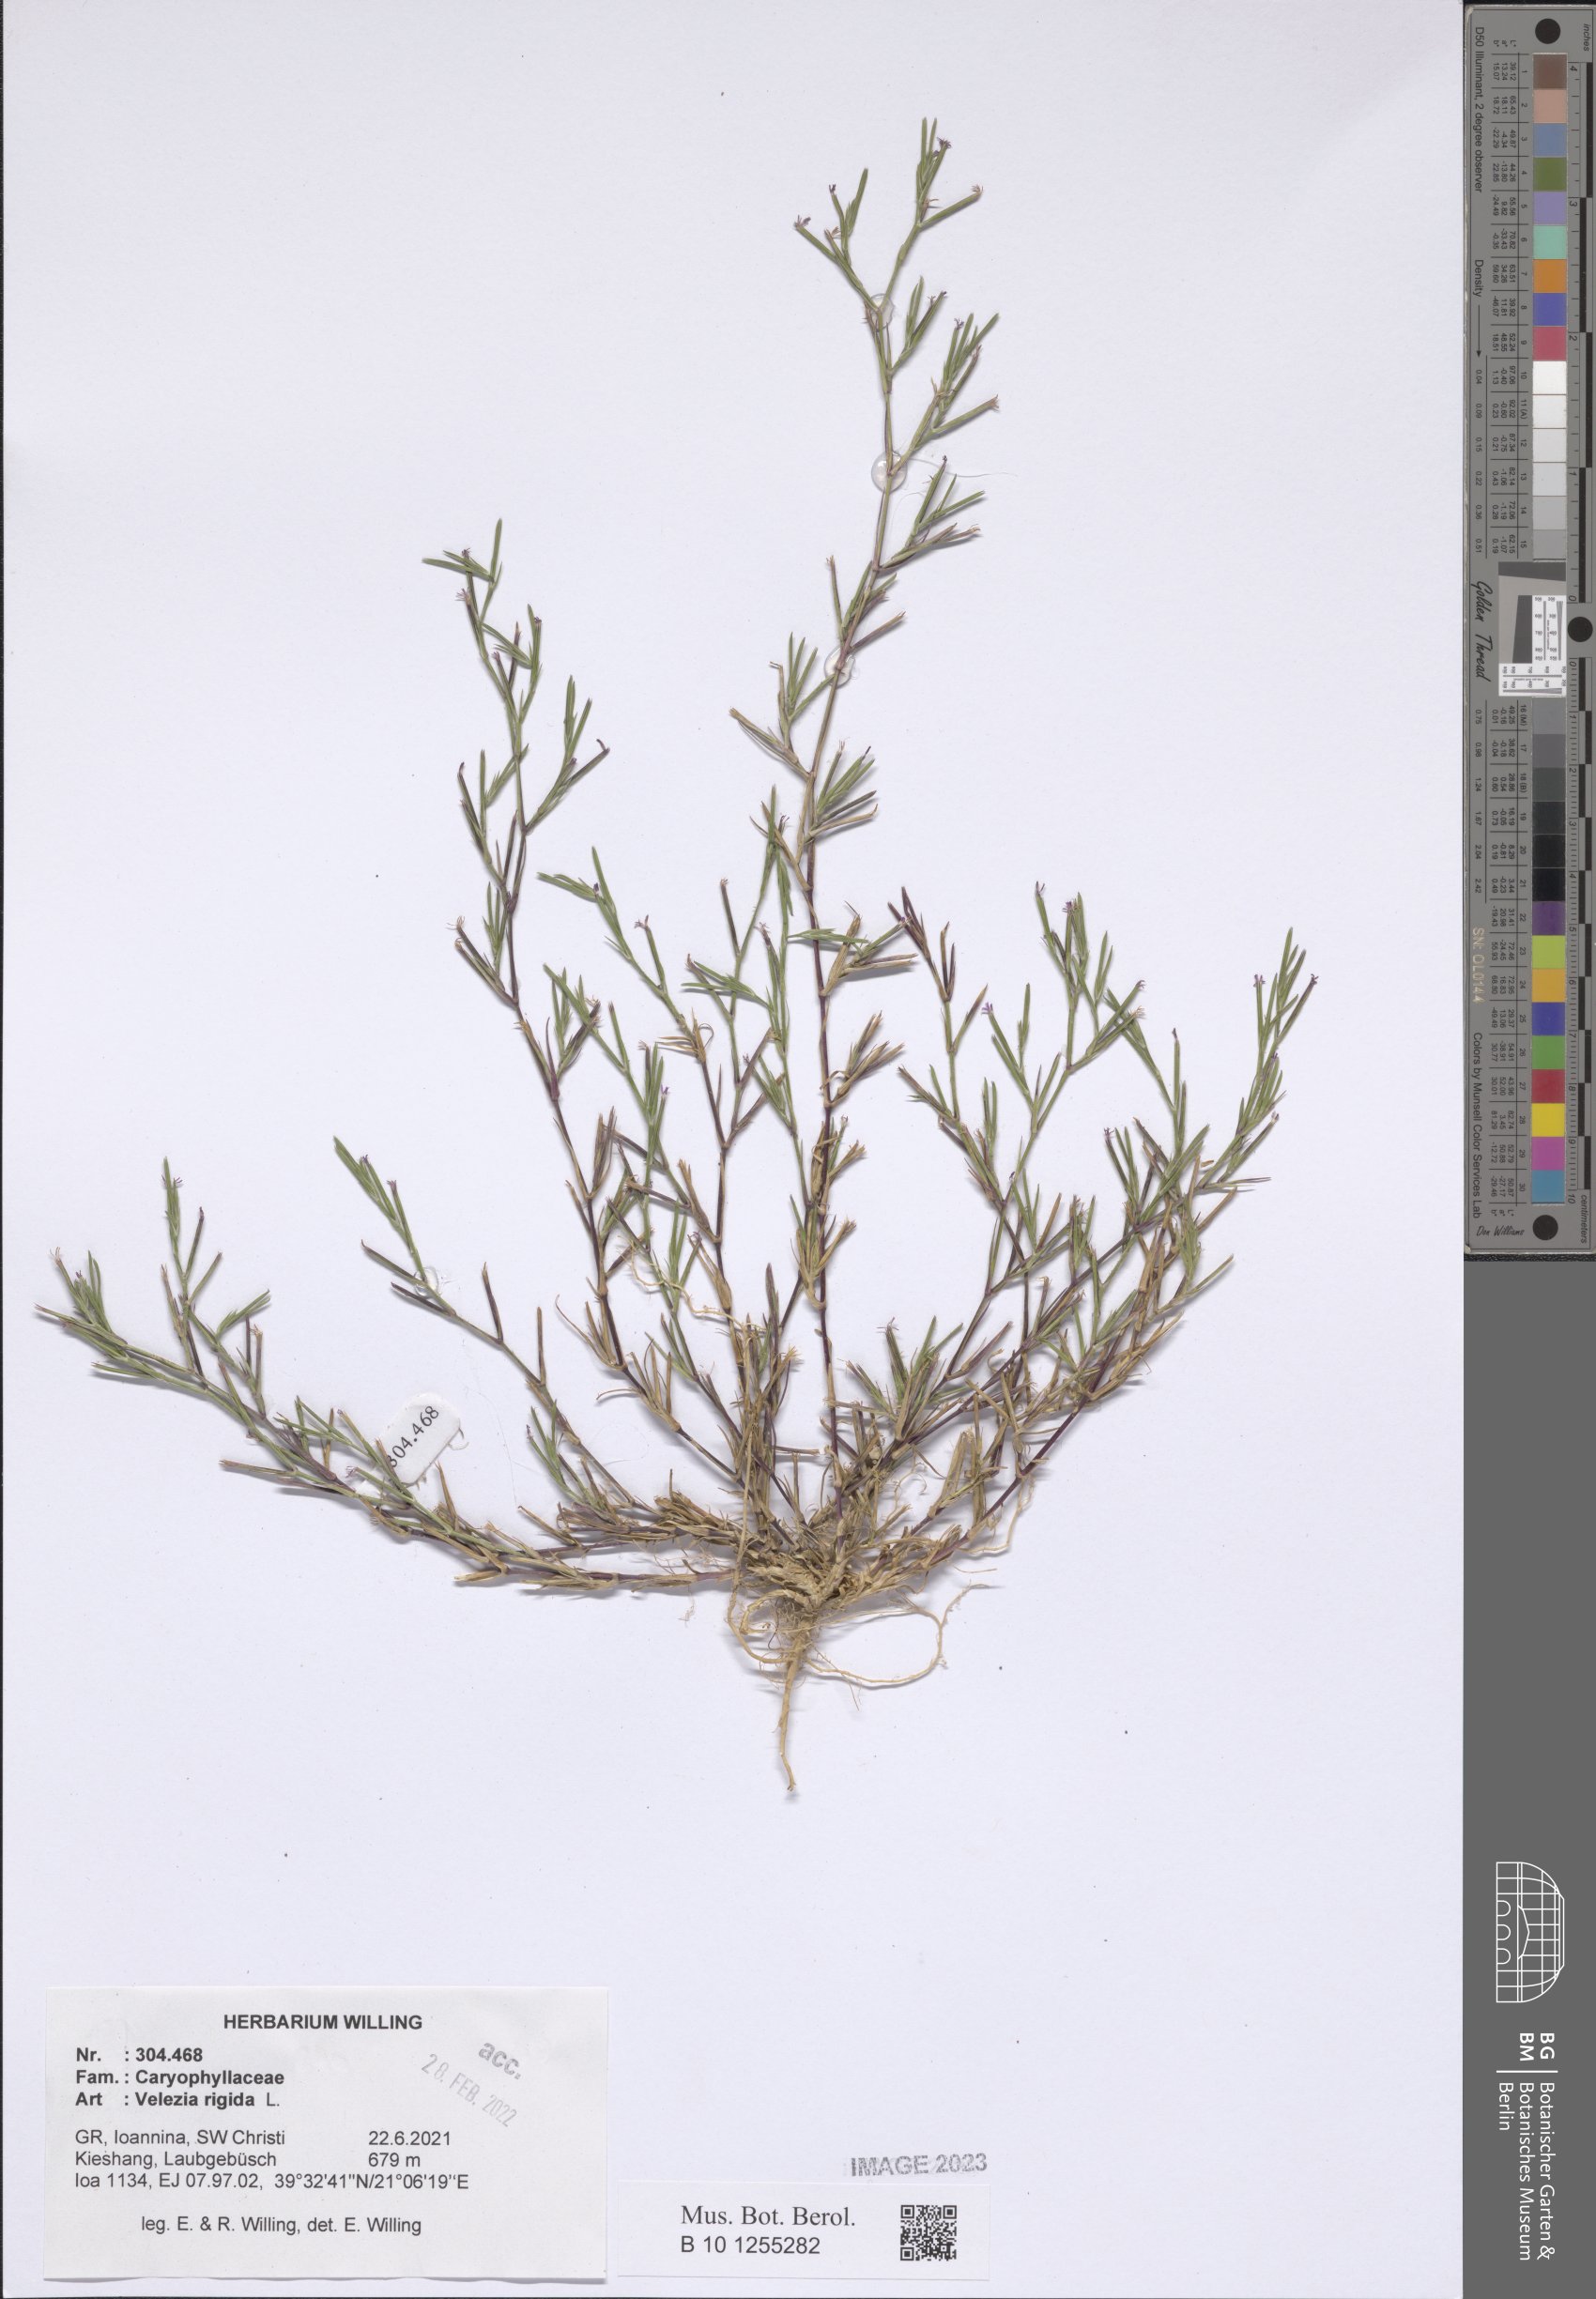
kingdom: Plantae
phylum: Tracheophyta
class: Magnoliopsida
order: Caryophyllales
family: Caryophyllaceae
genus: Dianthus
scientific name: Dianthus nudiflorus
